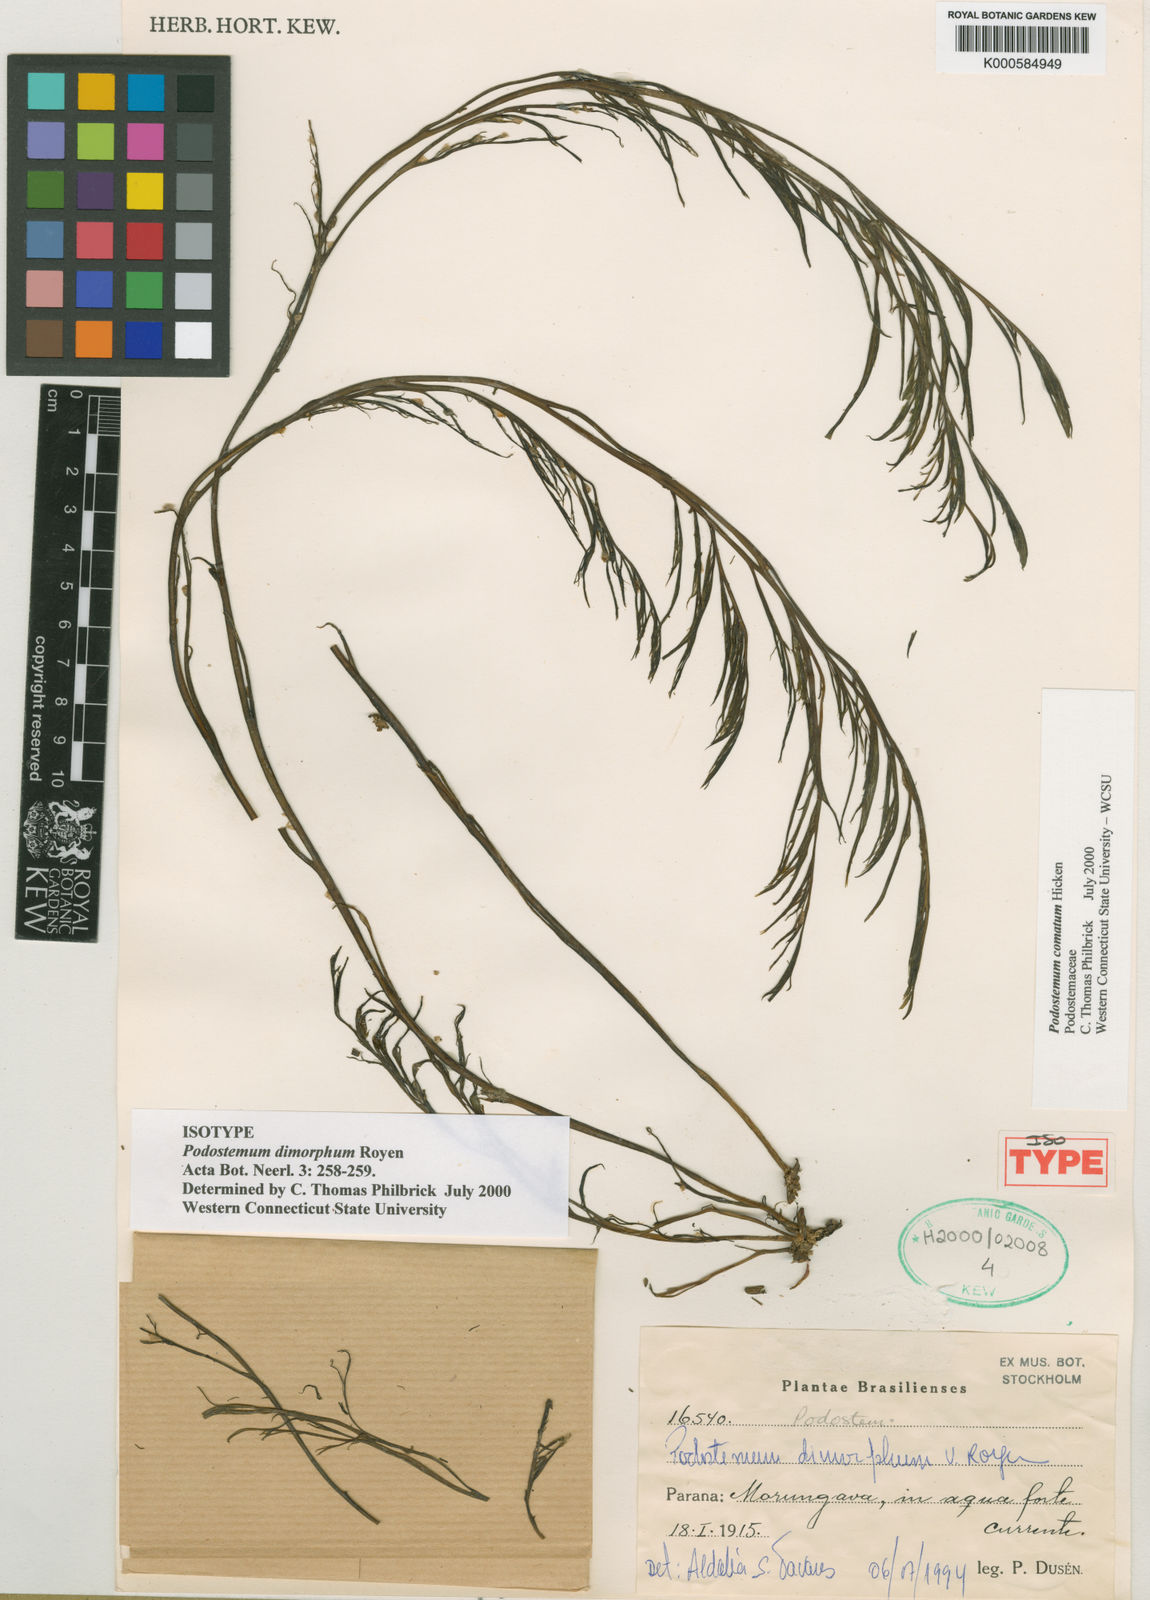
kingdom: Plantae
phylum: Tracheophyta
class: Magnoliopsida
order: Malpighiales
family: Podostemaceae
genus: Podostemum
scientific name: Podostemum comatum
